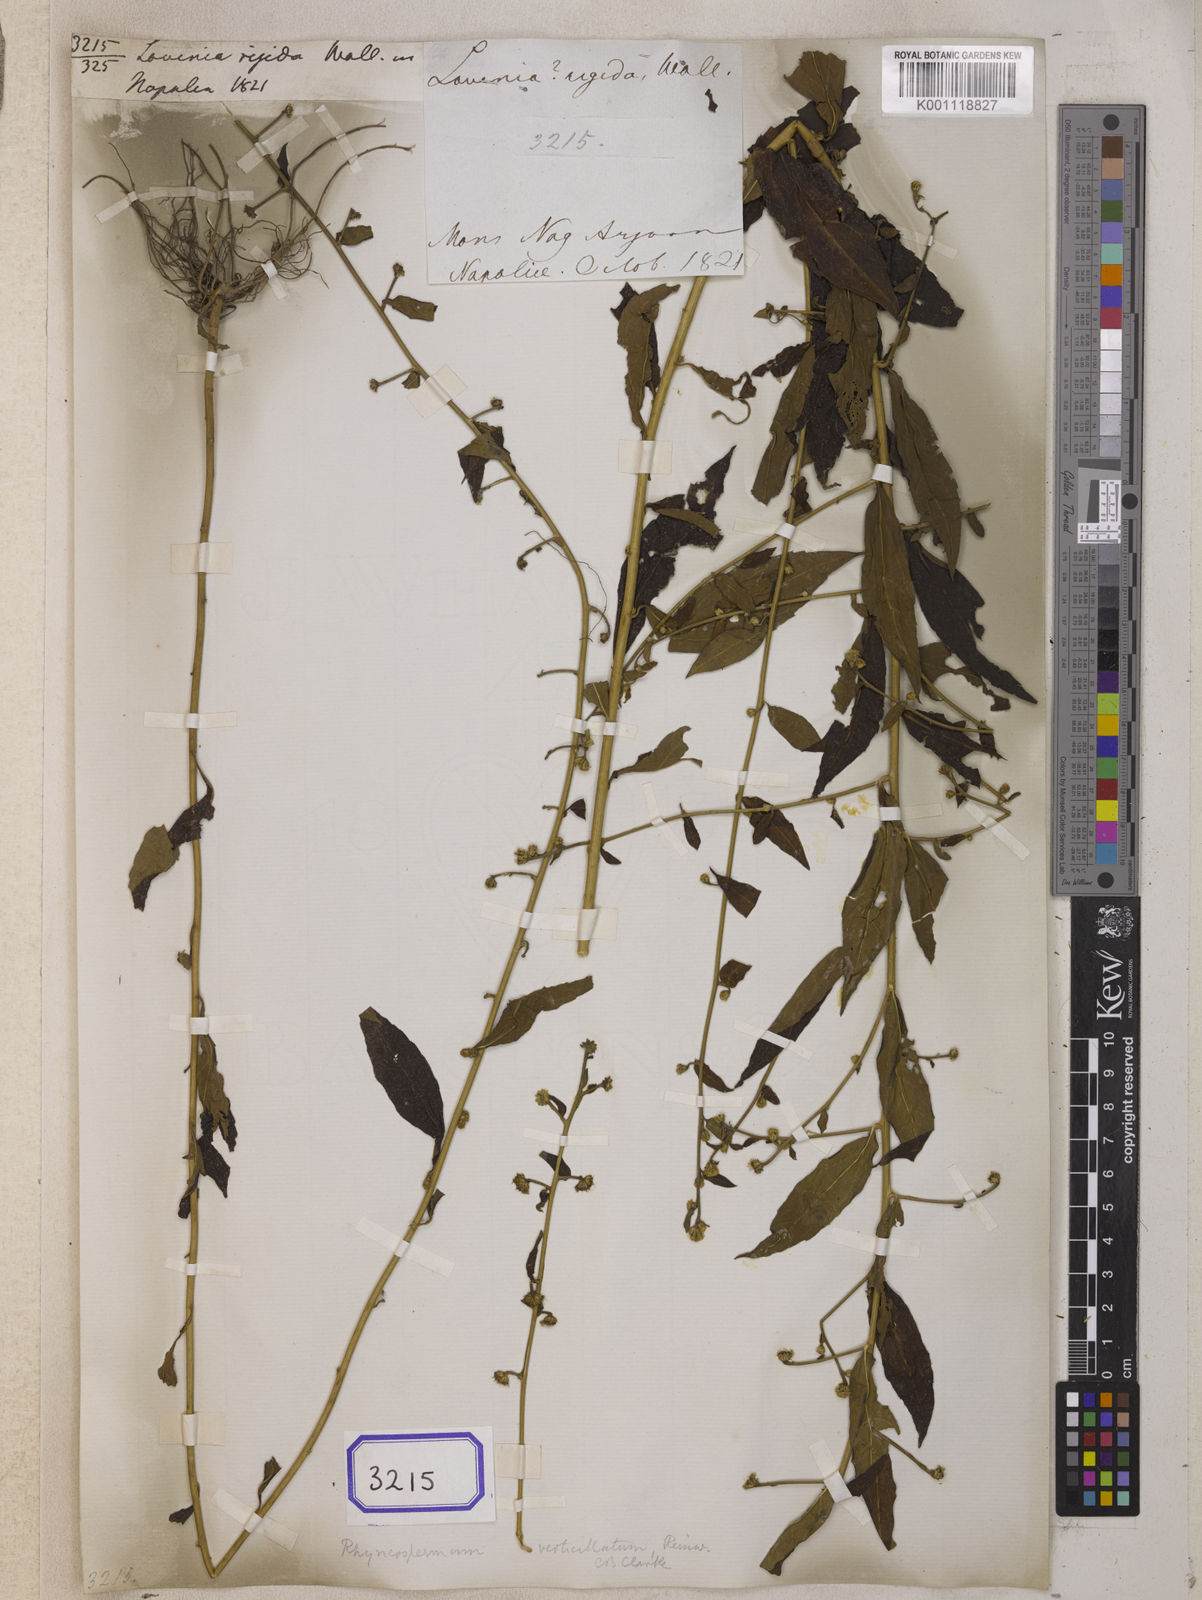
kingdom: Plantae
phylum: Tracheophyta
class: Magnoliopsida
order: Asterales
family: Asteraceae
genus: Rhynchospermum
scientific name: Rhynchospermum verticillatum
